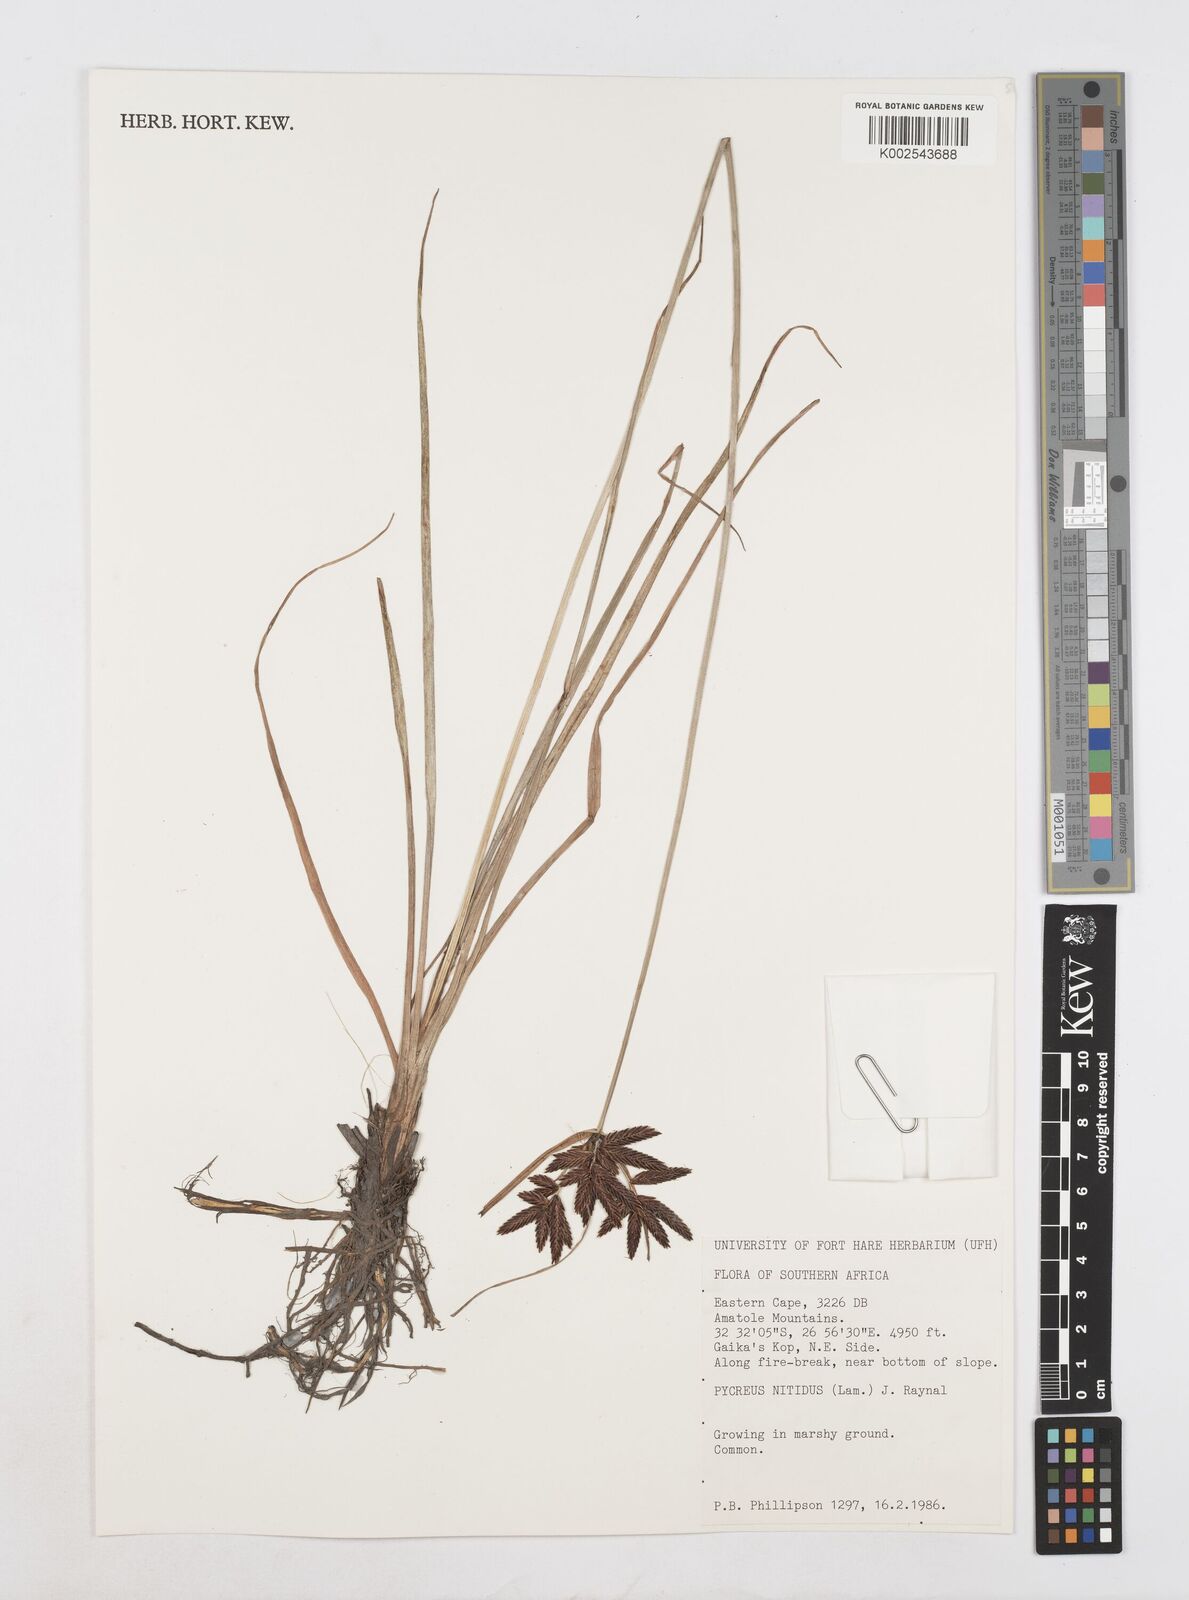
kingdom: Plantae
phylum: Tracheophyta
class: Liliopsida
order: Poales
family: Cyperaceae
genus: Cyperus
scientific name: Cyperus nitidus
